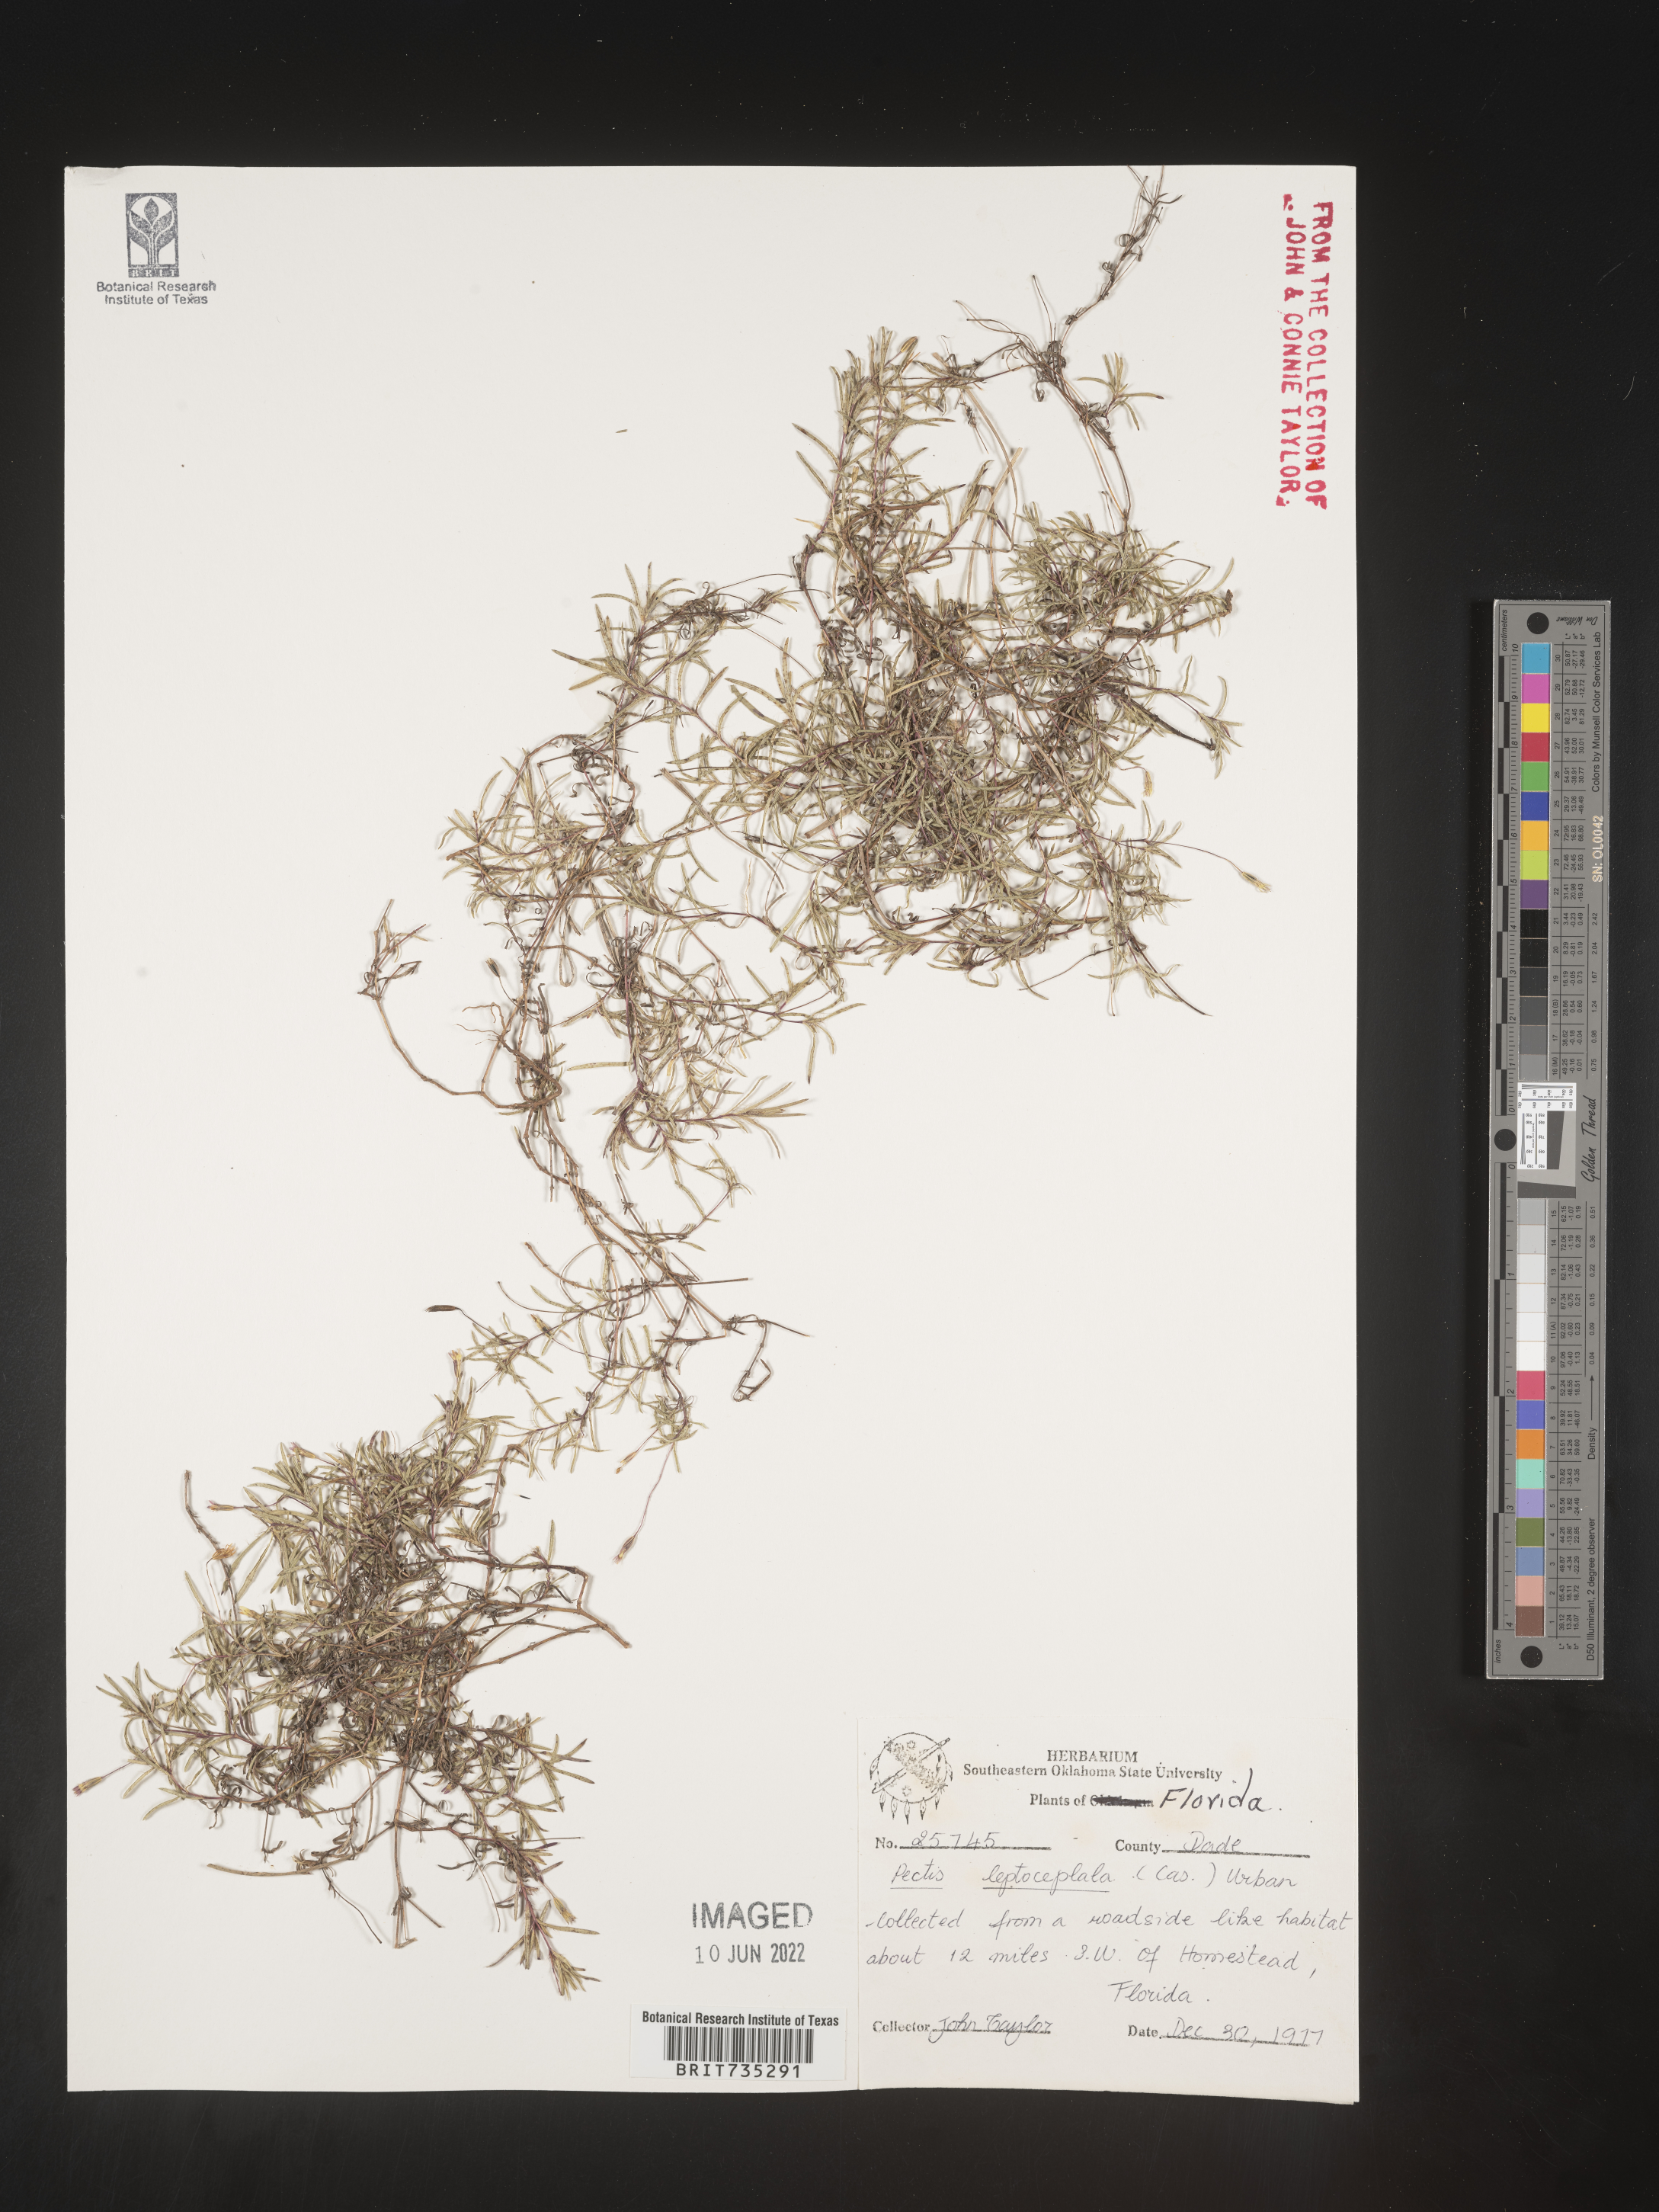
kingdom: Plantae
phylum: Tracheophyta
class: Magnoliopsida
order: Asterales
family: Asteraceae
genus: Pectis
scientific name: Pectis glaucescens
